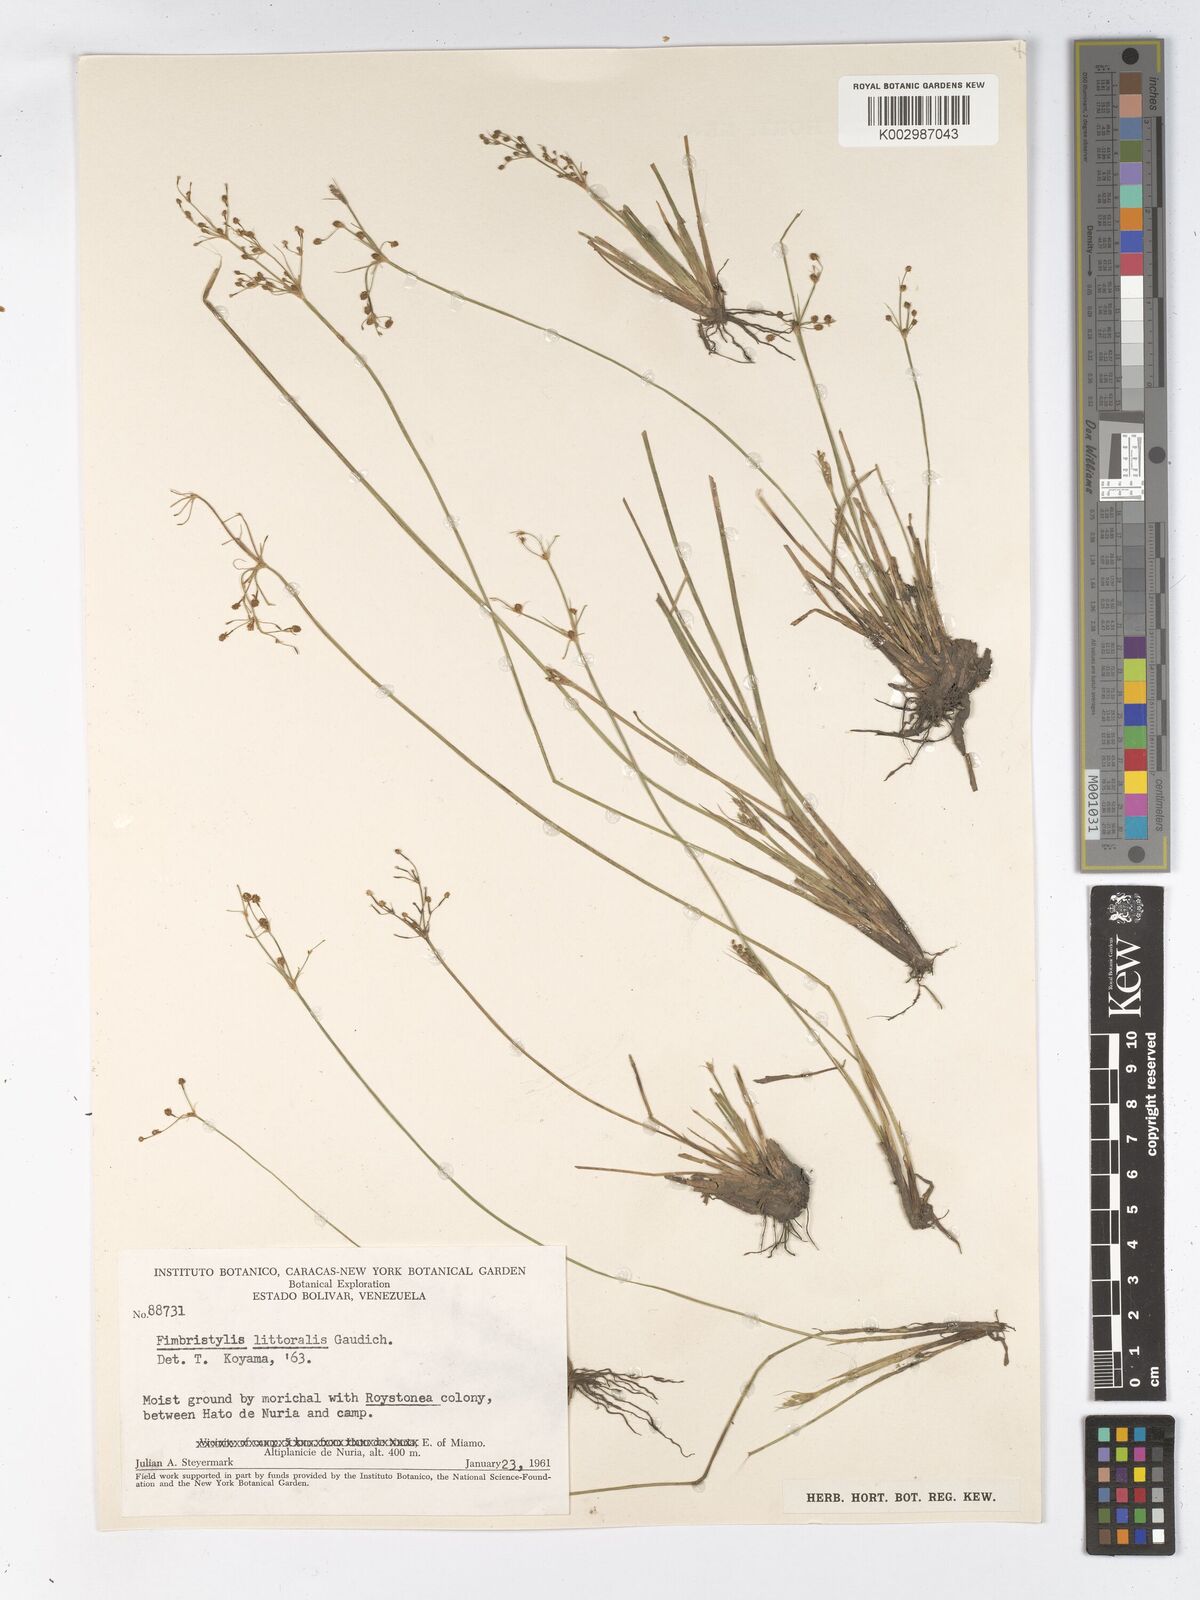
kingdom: Plantae
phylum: Tracheophyta
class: Liliopsida
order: Poales
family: Cyperaceae
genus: Fimbristylis
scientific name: Fimbristylis littoralis
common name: Fimbry
